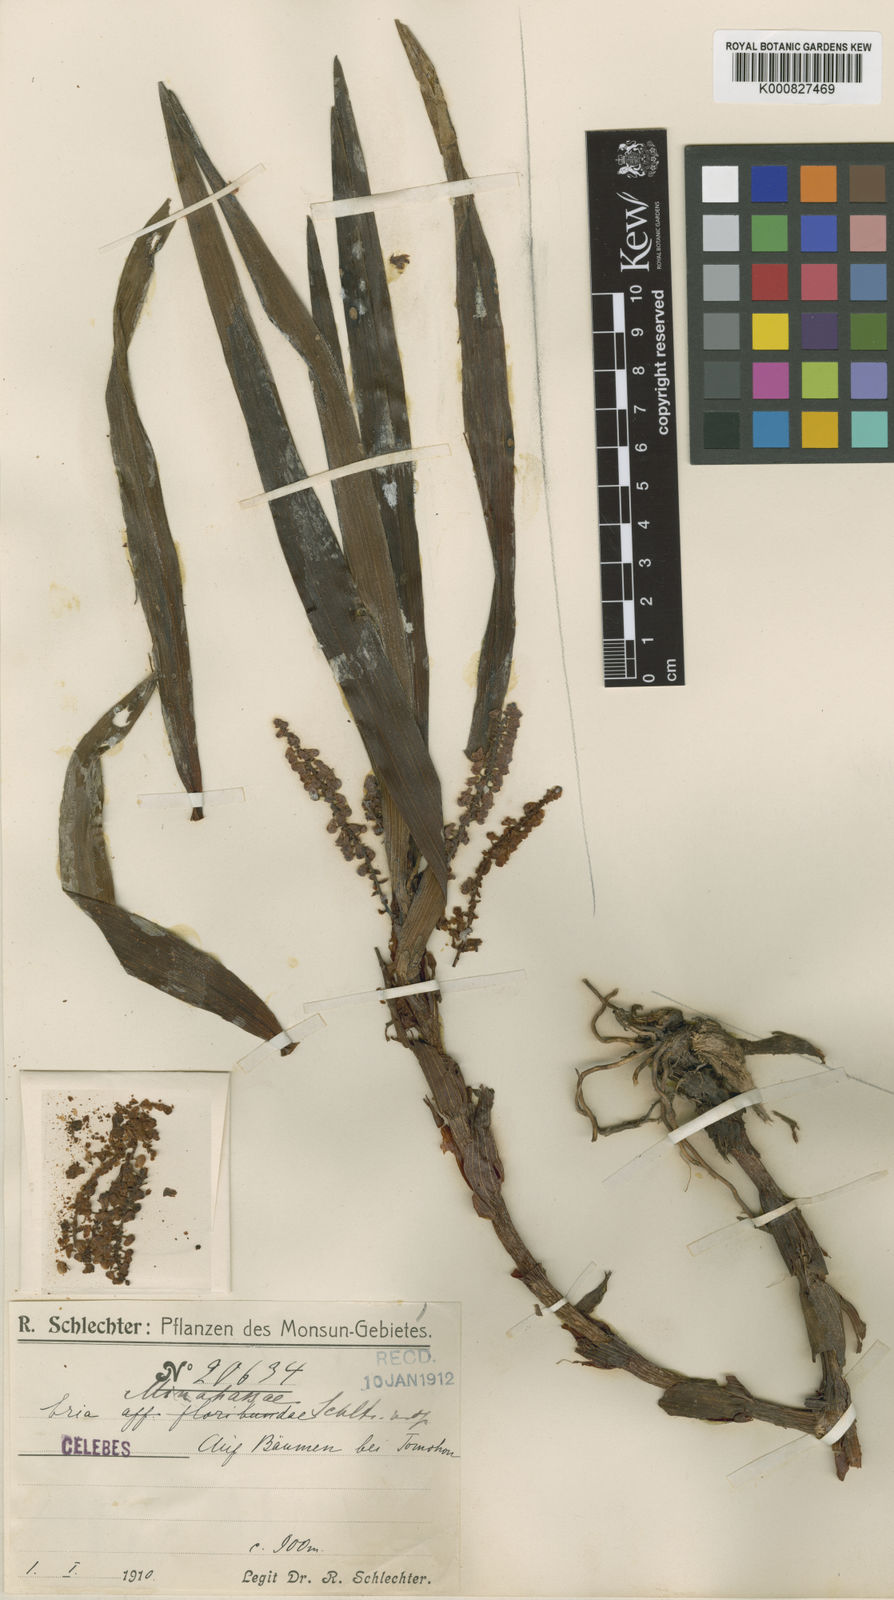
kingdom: Plantae
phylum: Tracheophyta
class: Liliopsida
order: Asparagales
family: Orchidaceae
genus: Pinalia
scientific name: Pinalia minahassae
